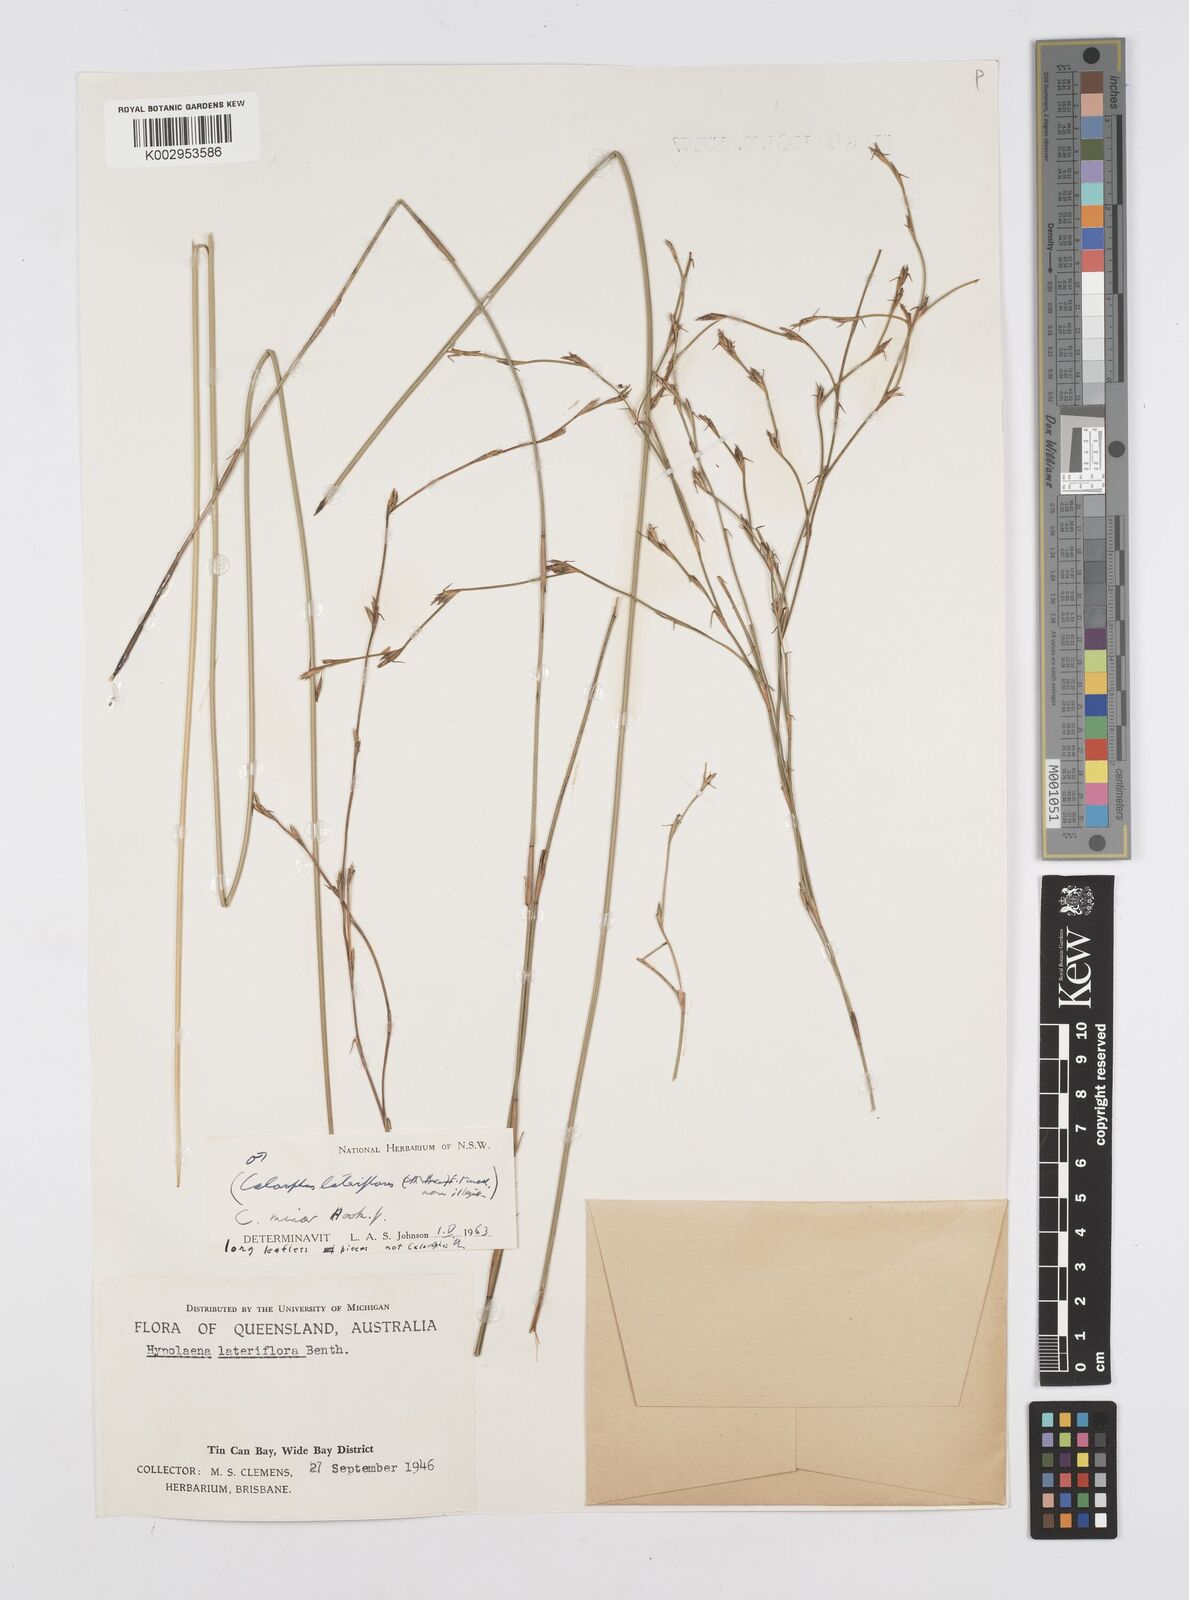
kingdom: Plantae
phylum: Tracheophyta
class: Liliopsida
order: Poales
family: Restionaceae
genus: Empodisma
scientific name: Empodisma minus
